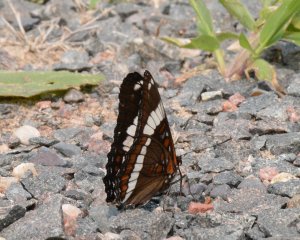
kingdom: Animalia
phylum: Arthropoda
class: Insecta
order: Lepidoptera
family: Nymphalidae
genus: Limenitis
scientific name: Limenitis arthemis
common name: Red-spotted Admiral
